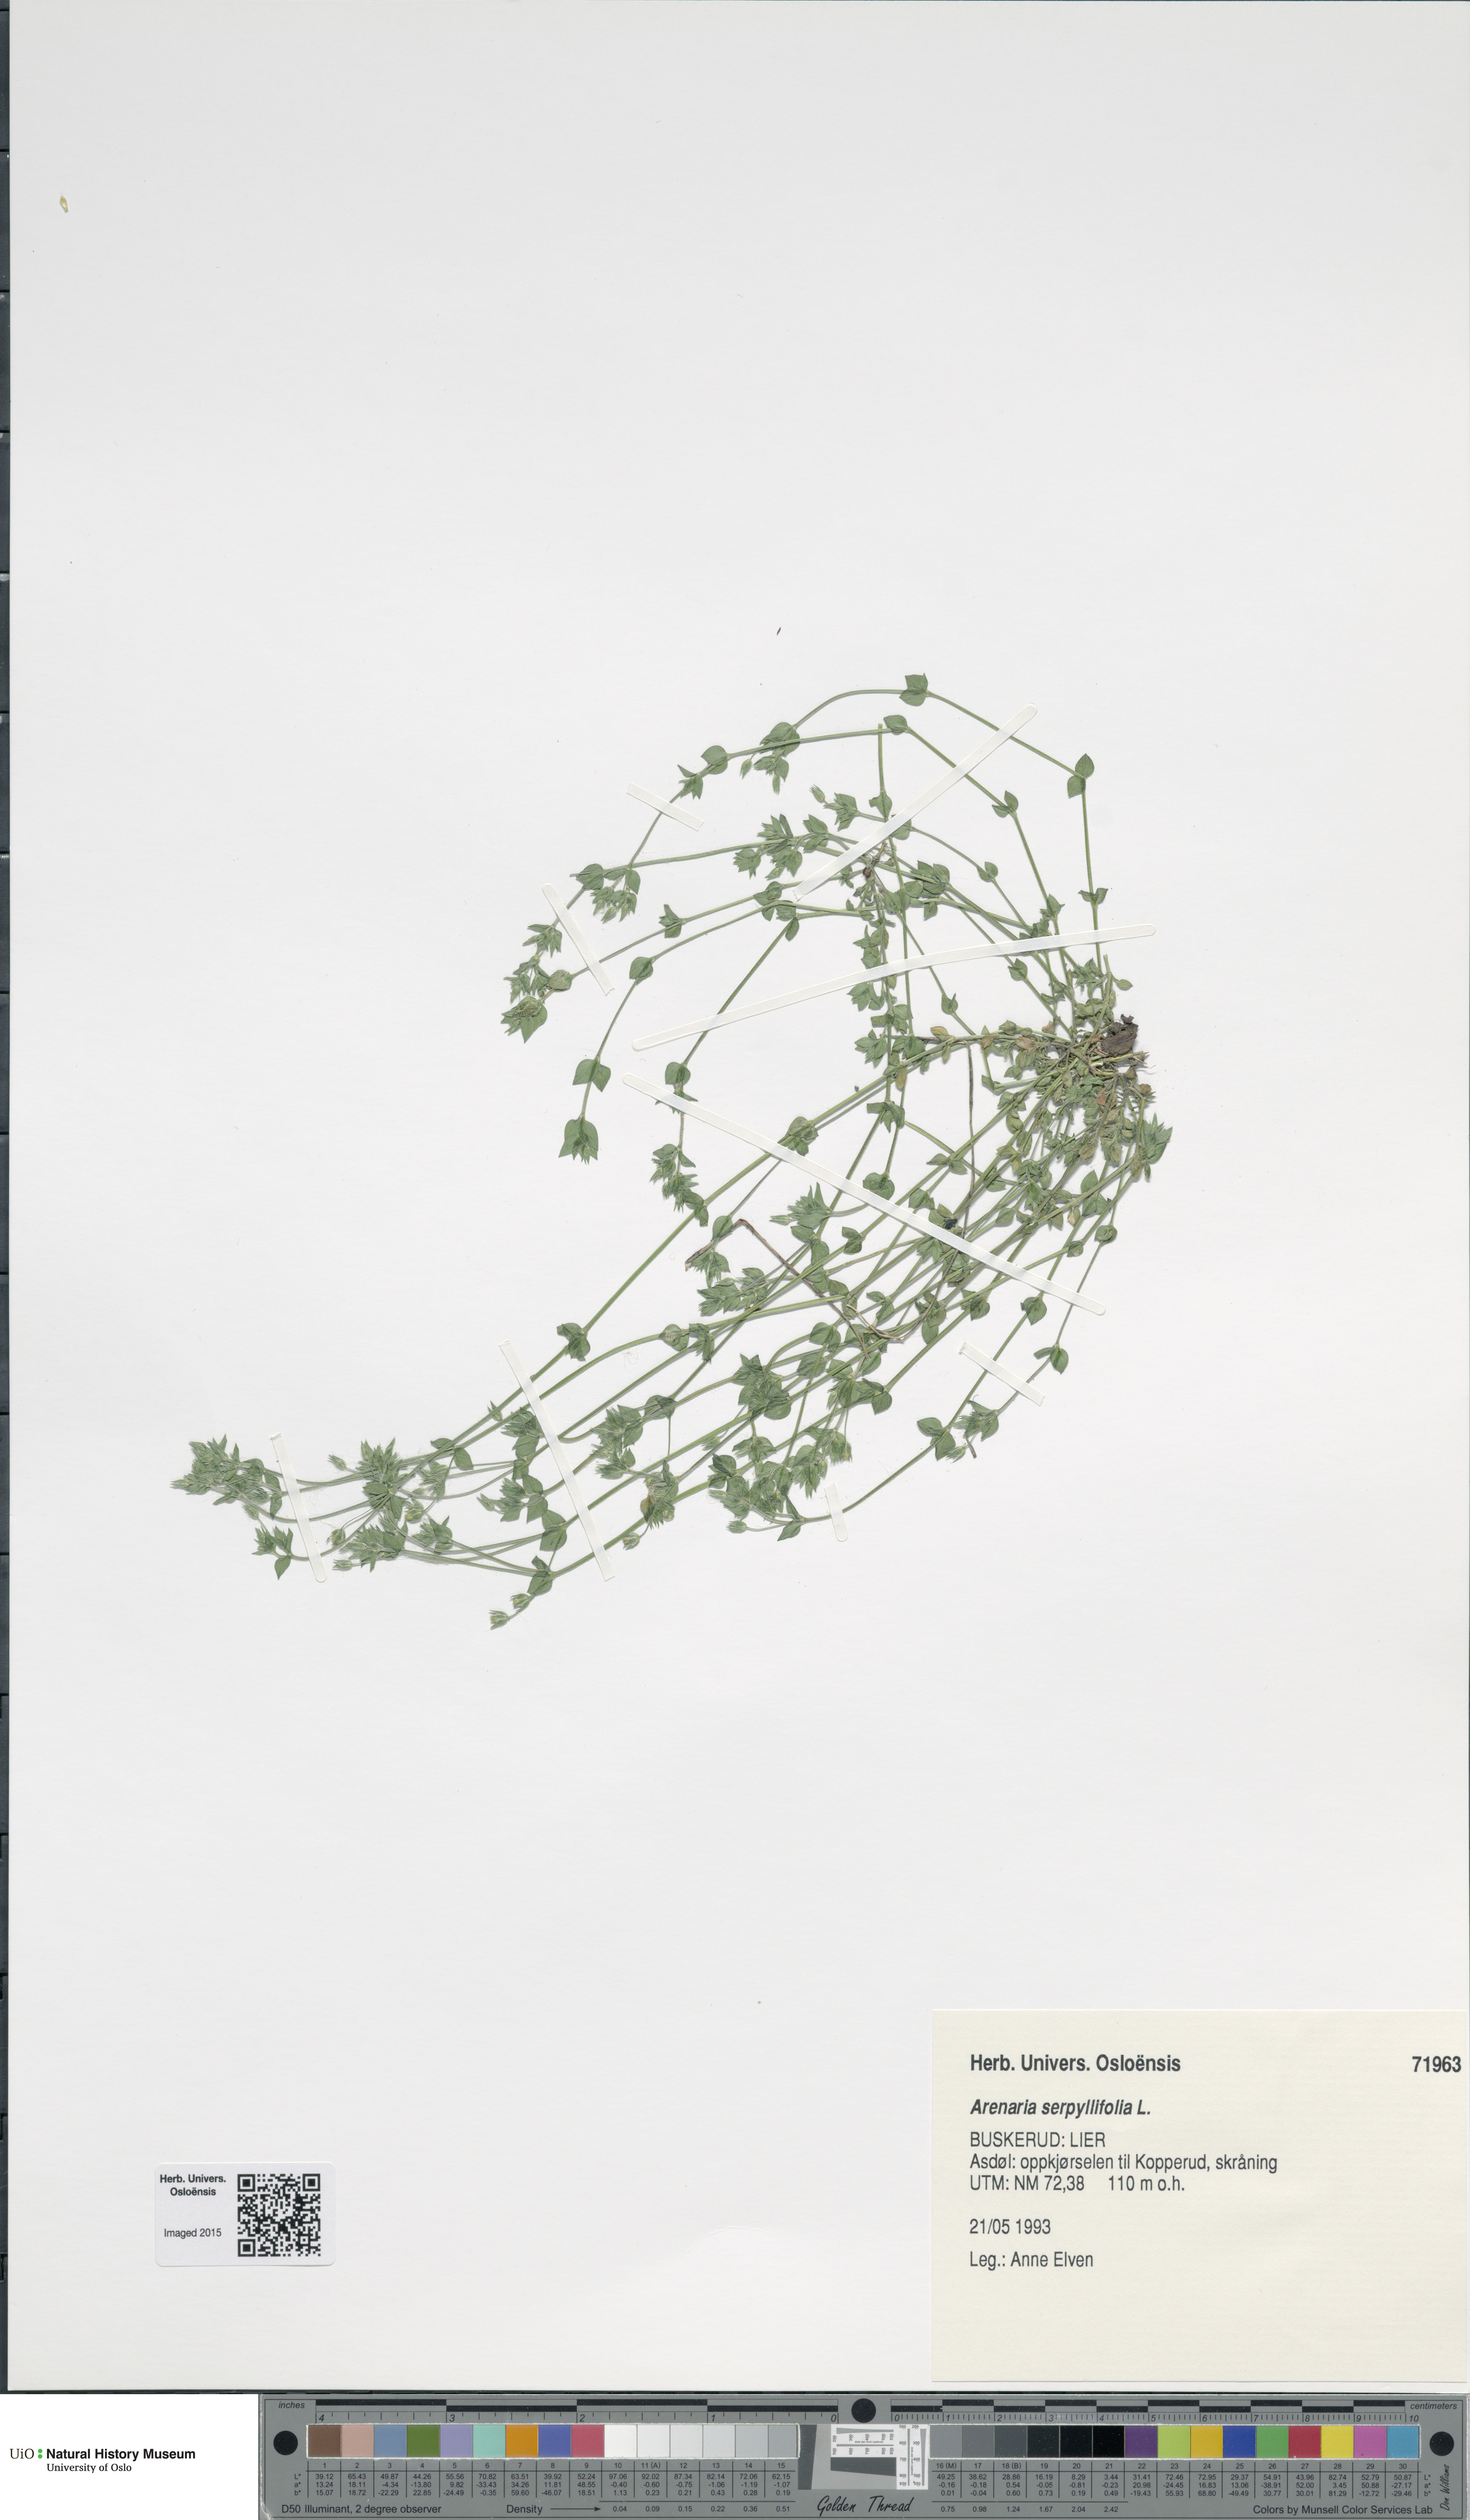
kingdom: Plantae
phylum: Tracheophyta
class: Magnoliopsida
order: Caryophyllales
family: Caryophyllaceae
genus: Arenaria
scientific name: Arenaria serpyllifolia
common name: Thyme-leaved sandwort
